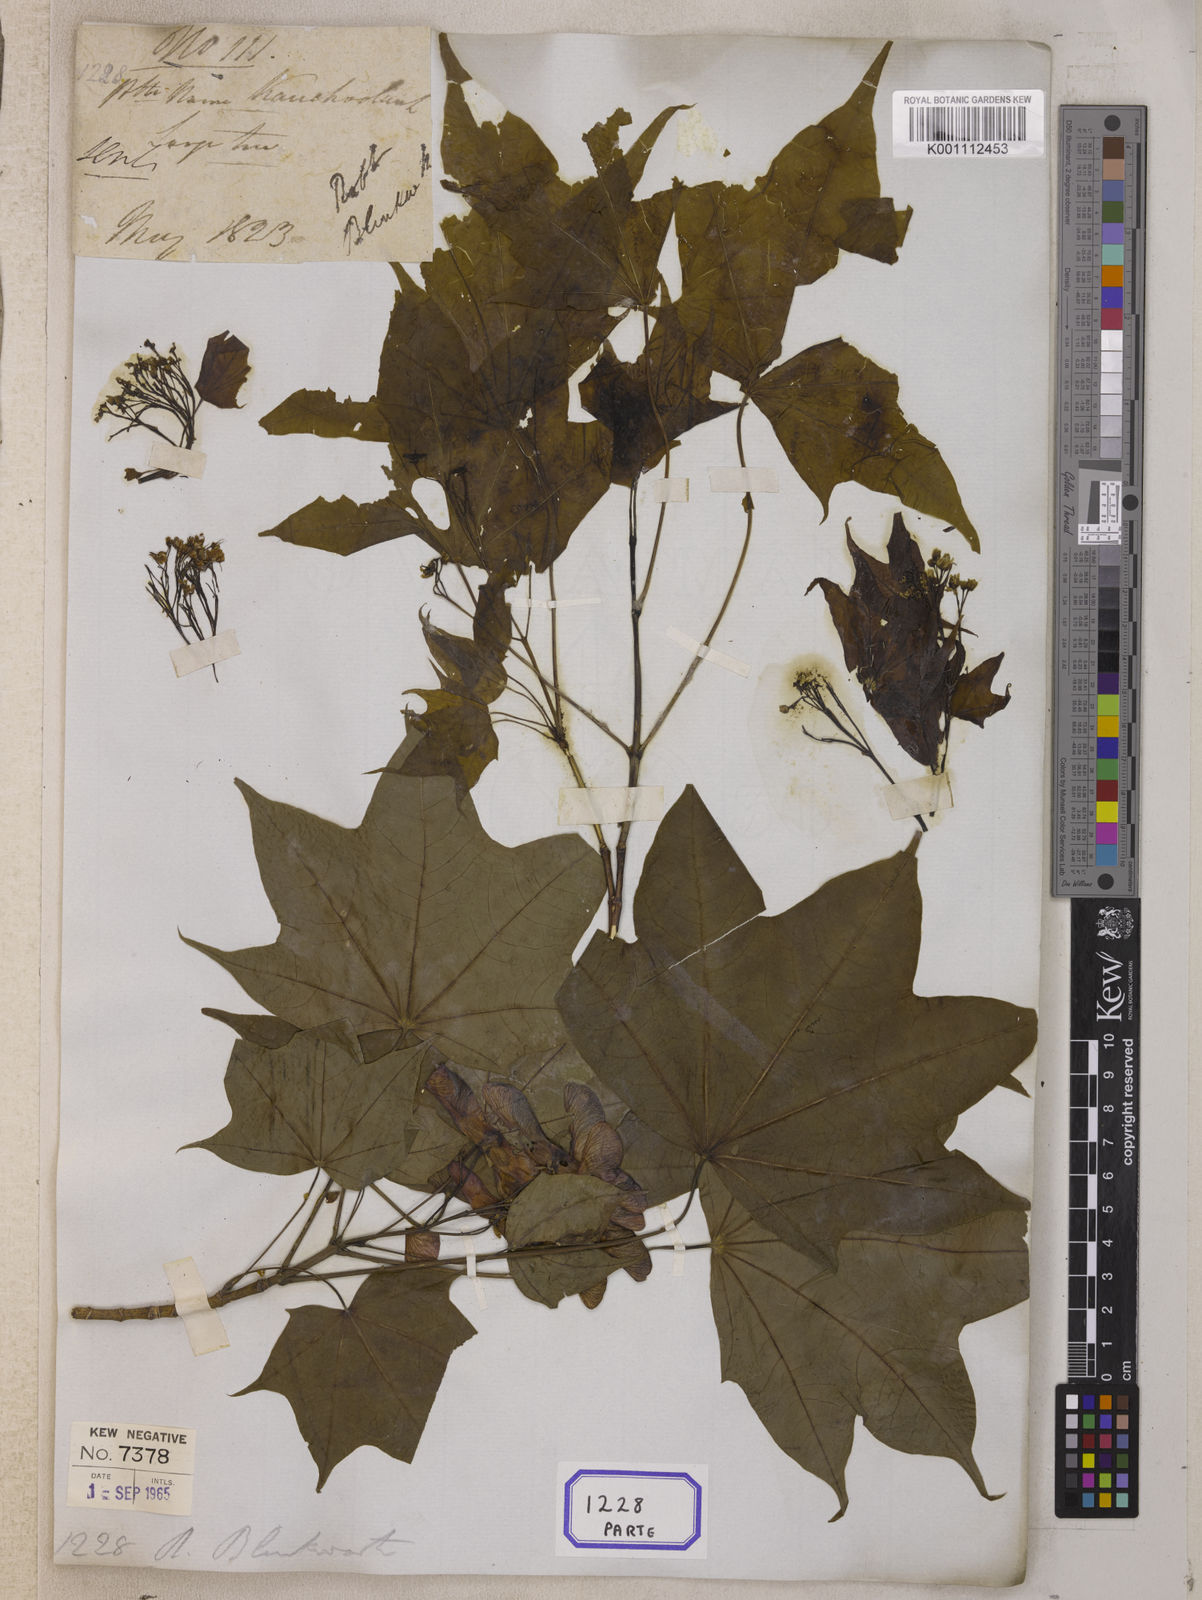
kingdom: Plantae
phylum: Tracheophyta
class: Magnoliopsida
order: Sapindales
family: Sapindaceae
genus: Acer
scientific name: Acer cappadocicum
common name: Cappadocian maple
